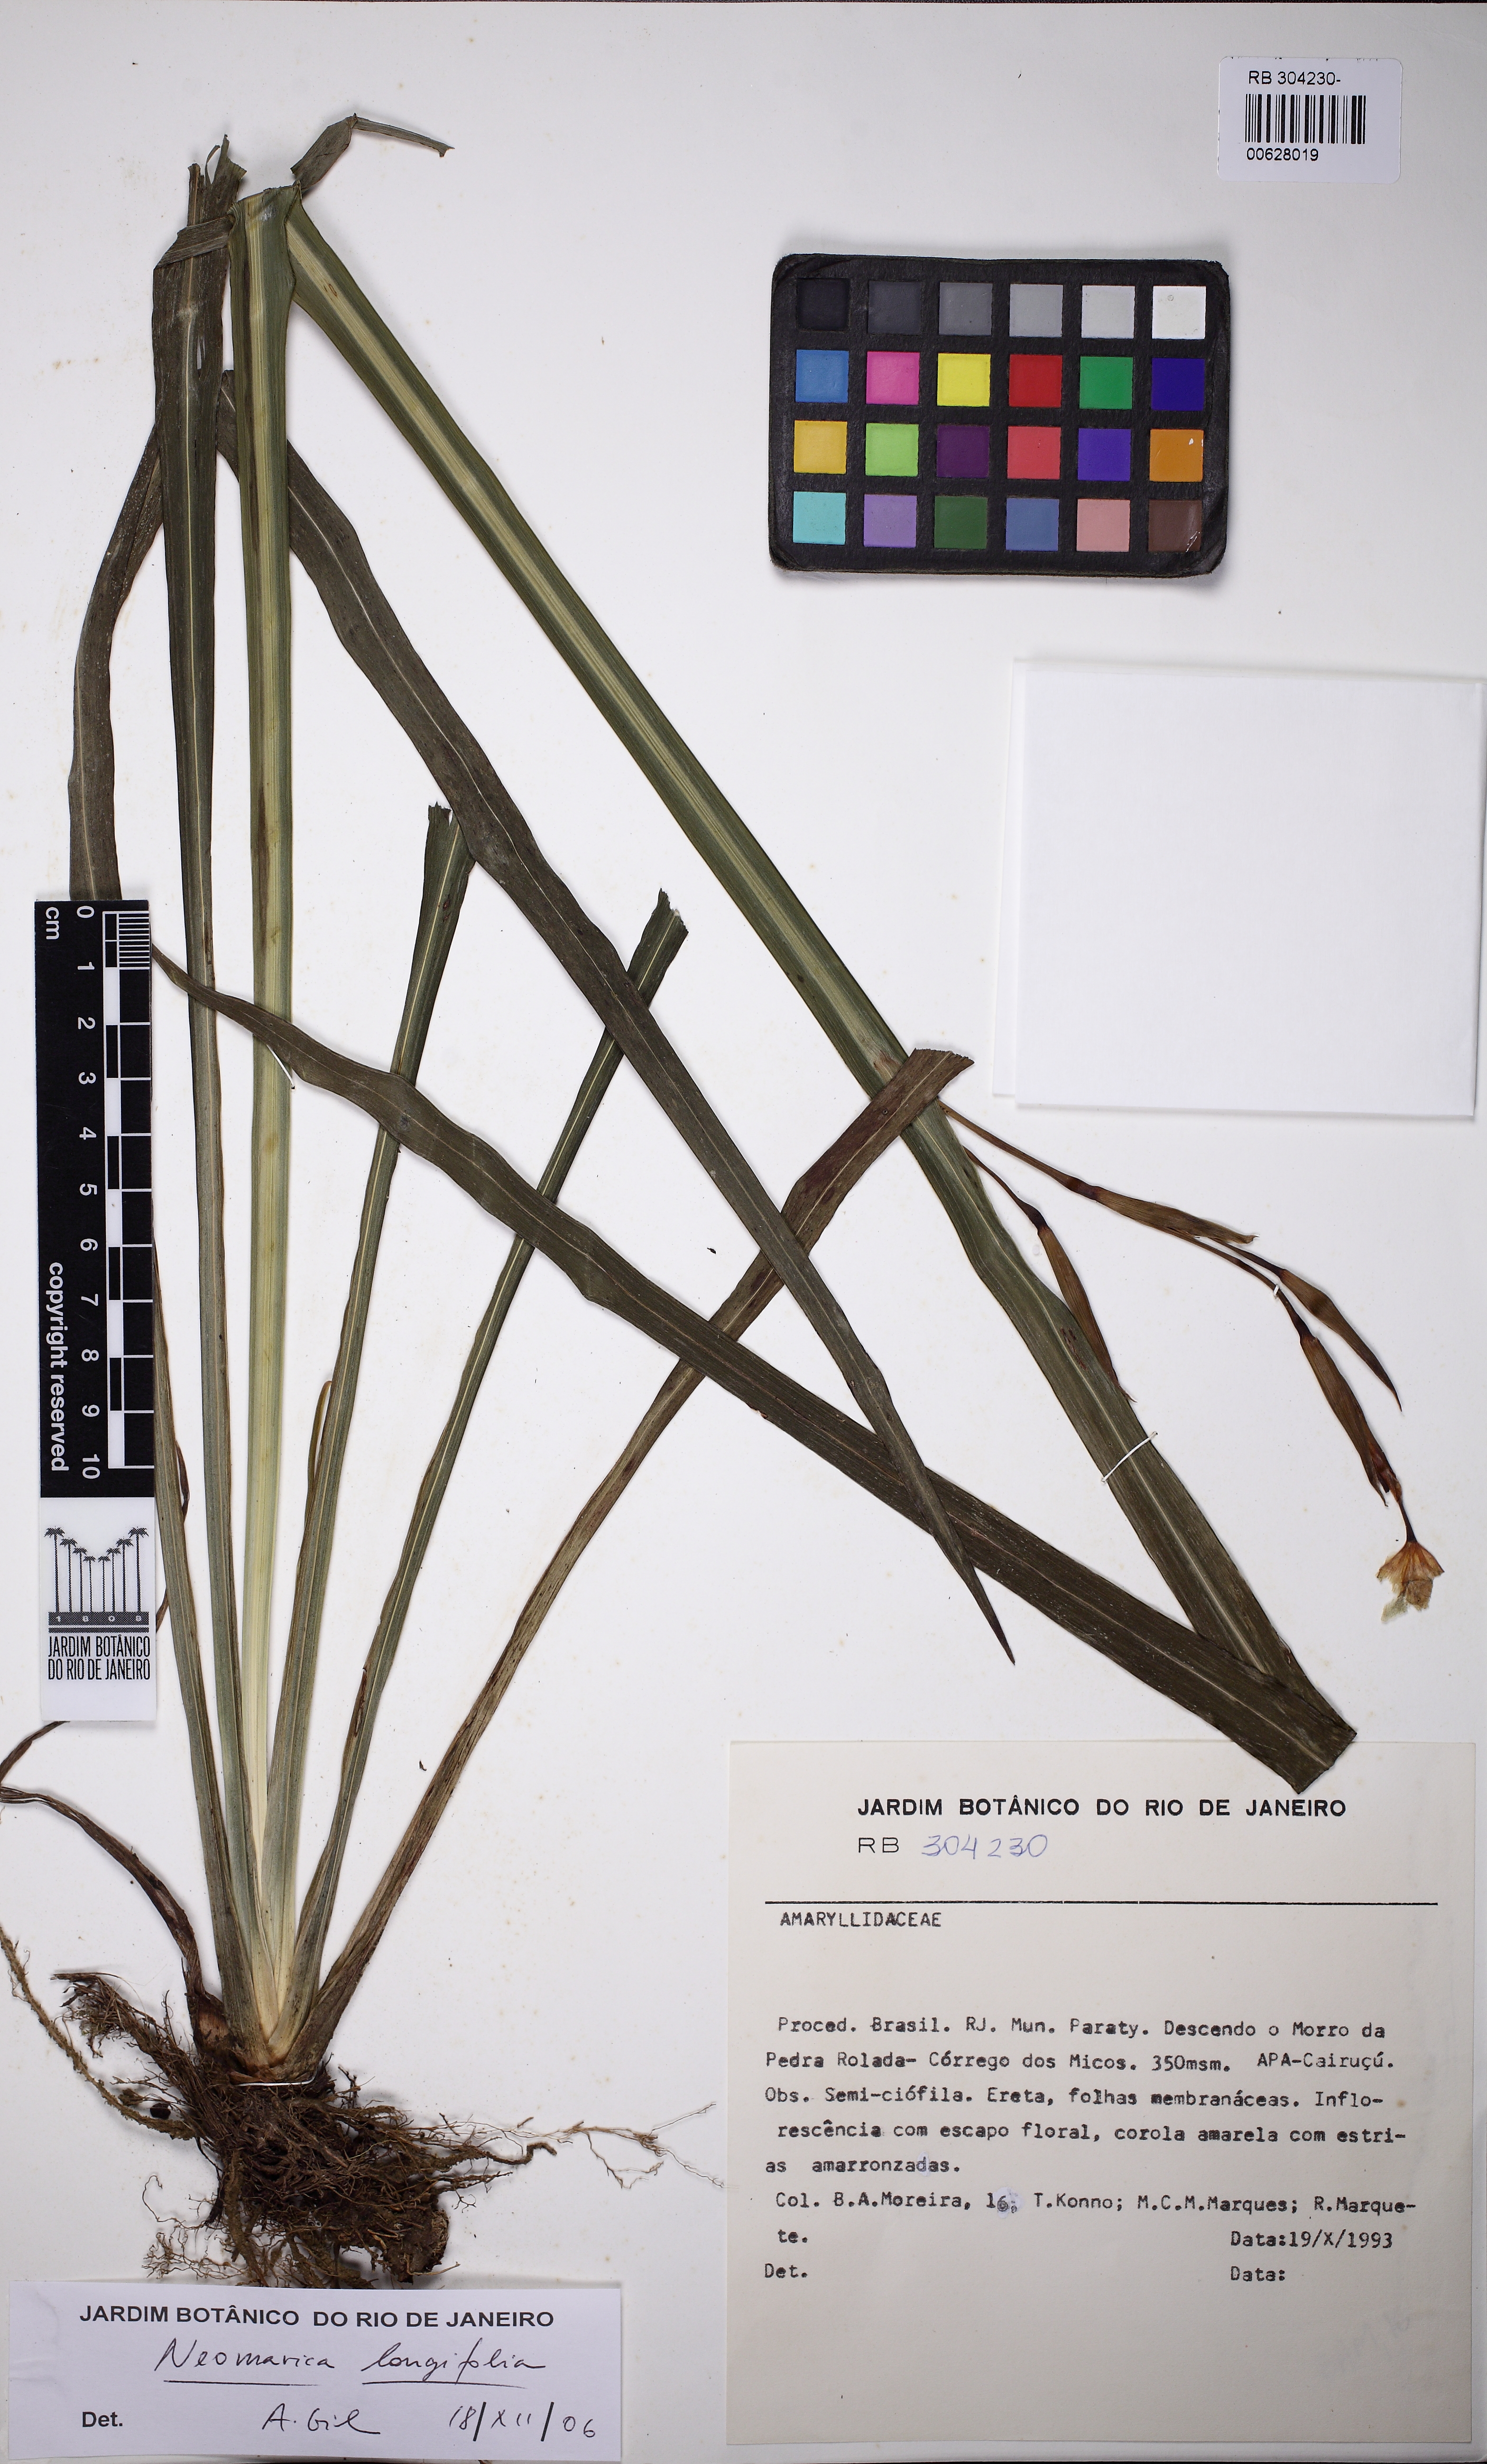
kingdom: Plantae
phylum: Tracheophyta
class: Liliopsida
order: Asparagales
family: Iridaceae
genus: Trimezia
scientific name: Trimezia longifolia
